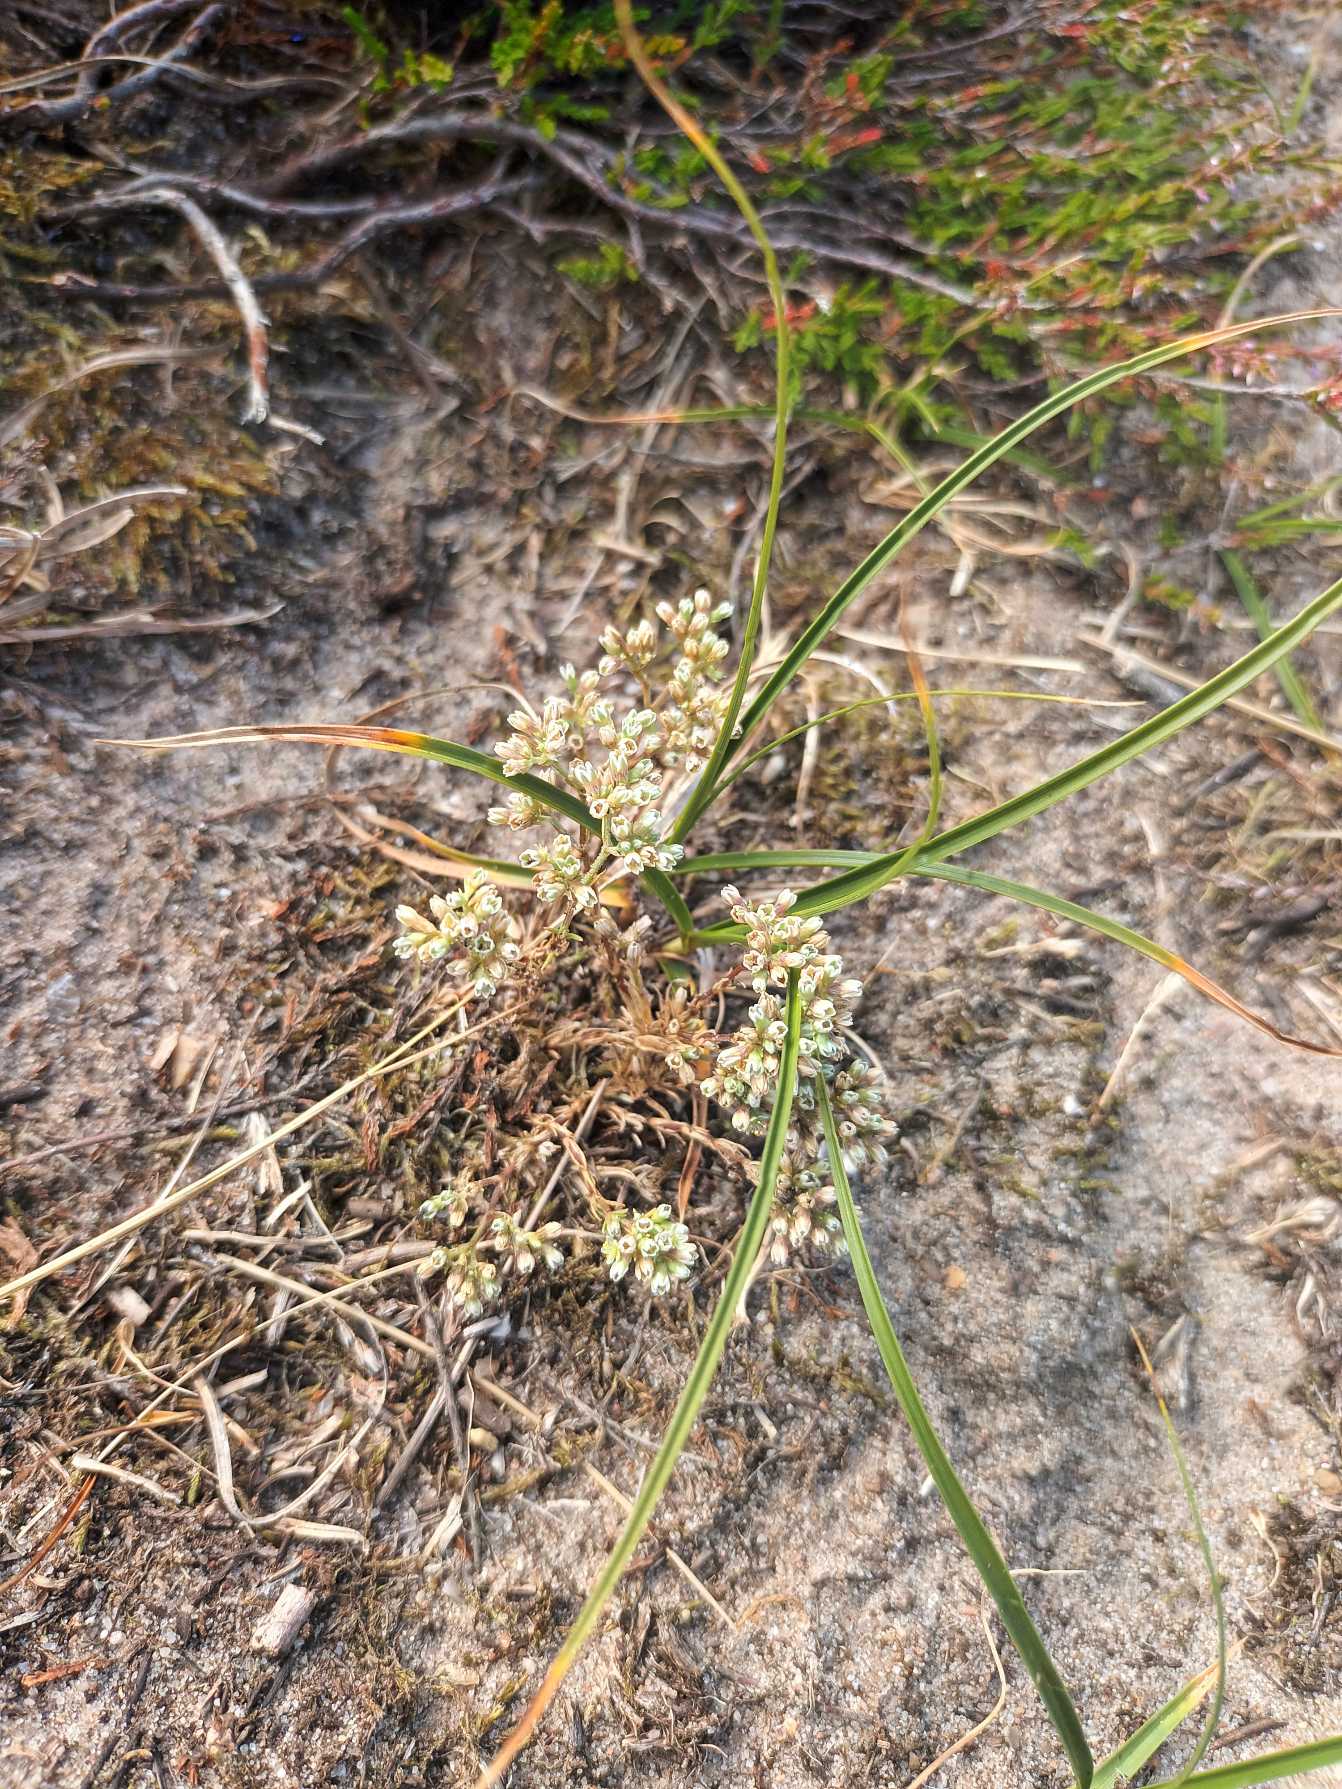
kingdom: Plantae
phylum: Tracheophyta
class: Magnoliopsida
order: Caryophyllales
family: Caryophyllaceae
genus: Scleranthus
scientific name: Scleranthus perennis
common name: Flerårig knavel
